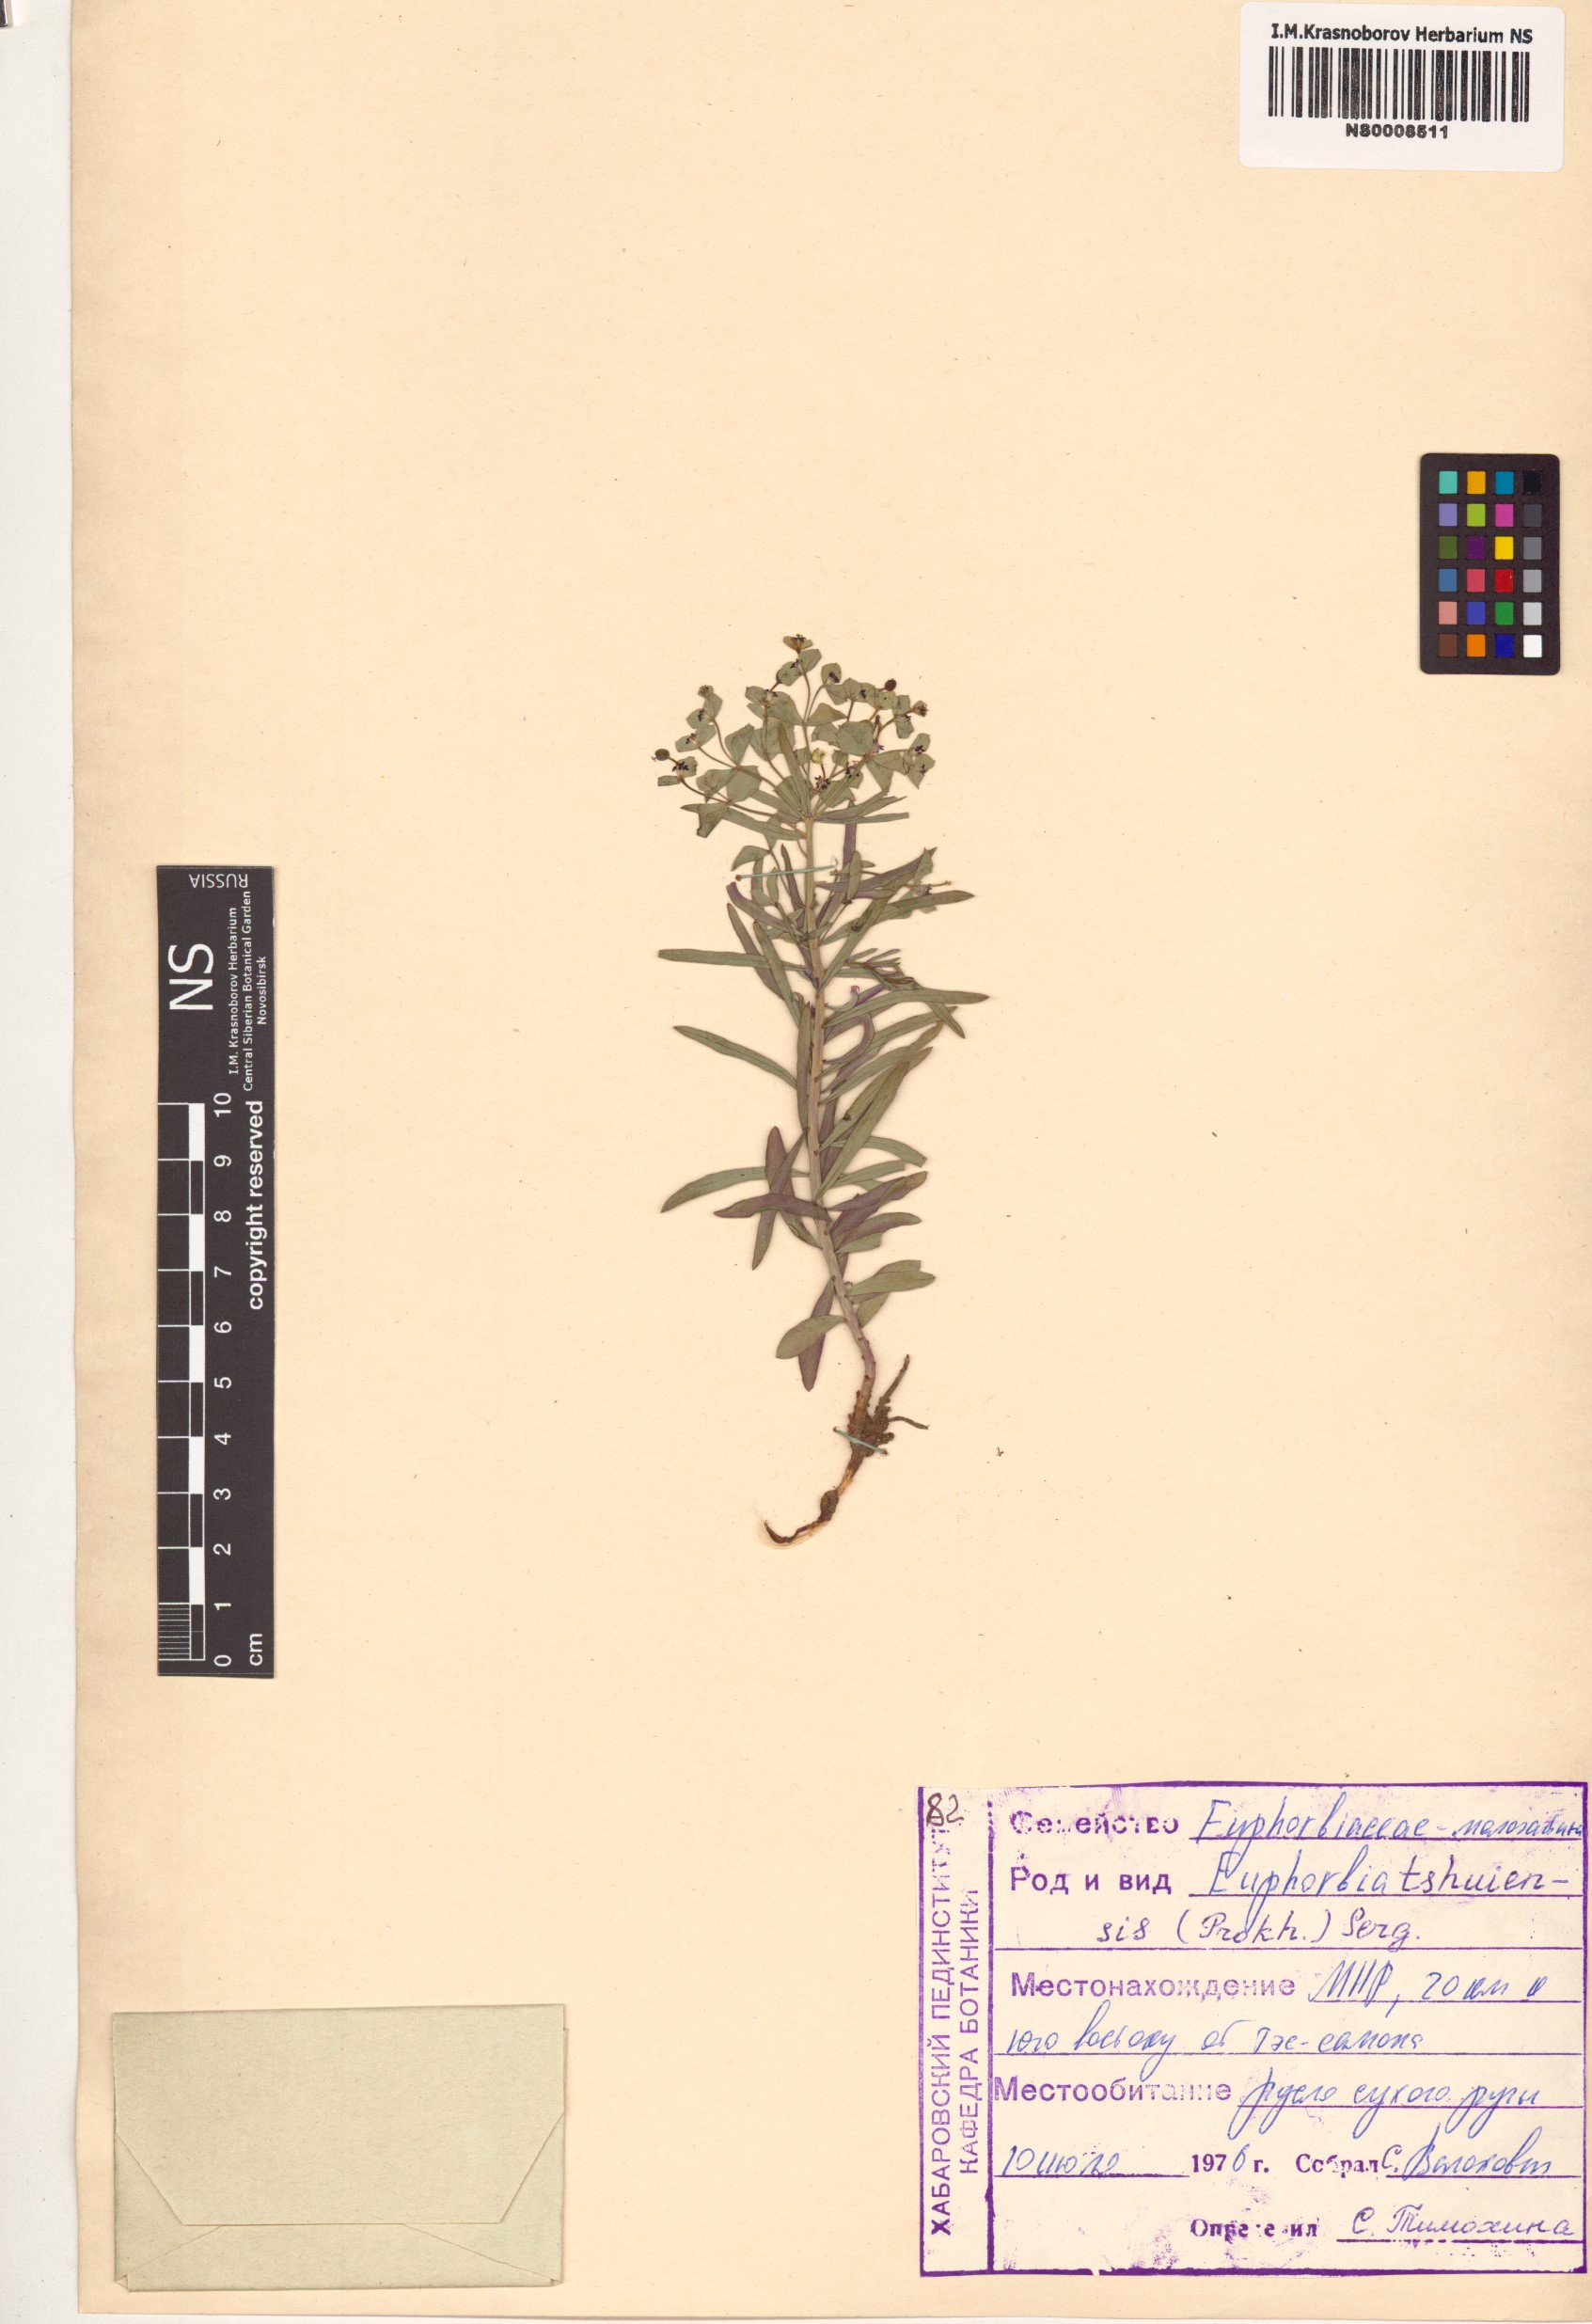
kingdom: Plantae
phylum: Tracheophyta
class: Magnoliopsida
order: Malpighiales
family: Euphorbiaceae
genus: Euphorbia
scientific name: Euphorbia tshuiensis
